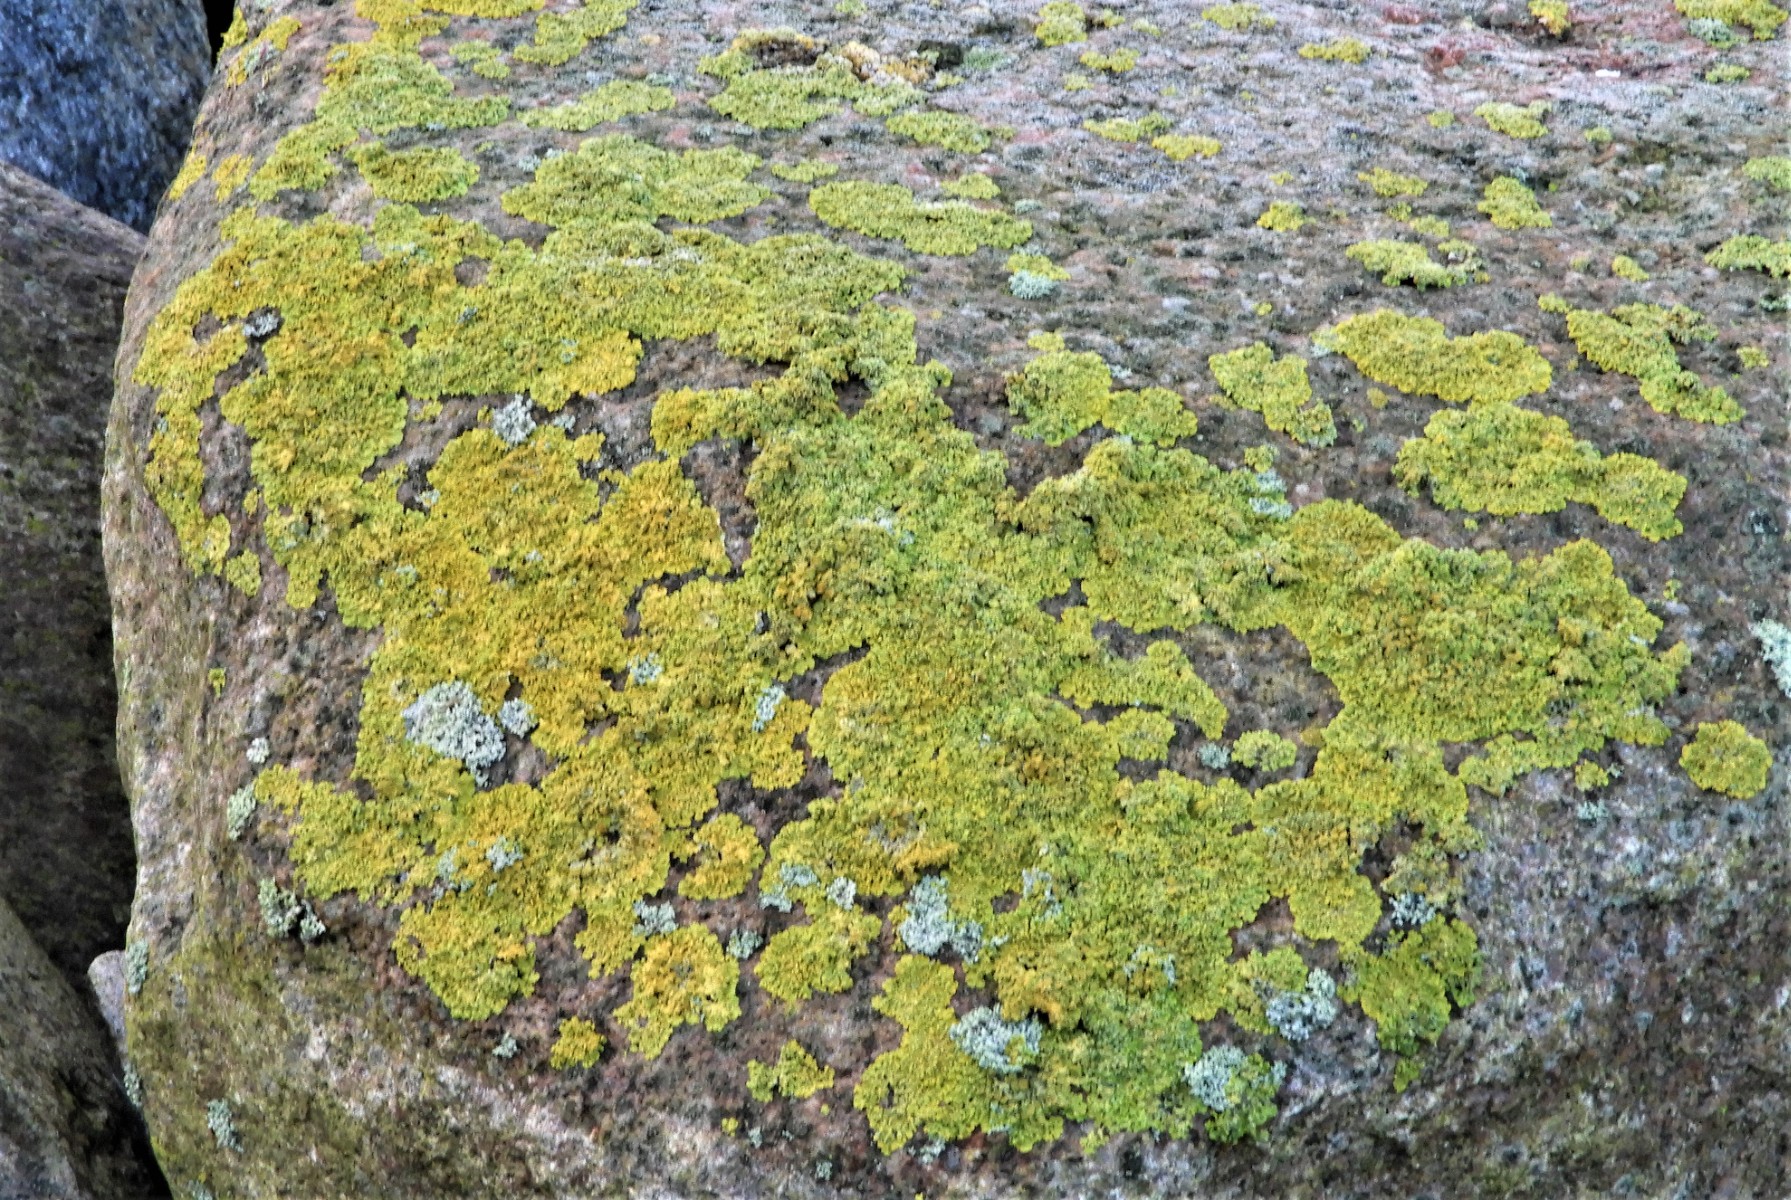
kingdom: Fungi
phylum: Ascomycota
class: Lecanoromycetes
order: Teloschistales
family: Teloschistaceae
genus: Xanthoria
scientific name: Xanthoria parietina
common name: almindelig væggelav
